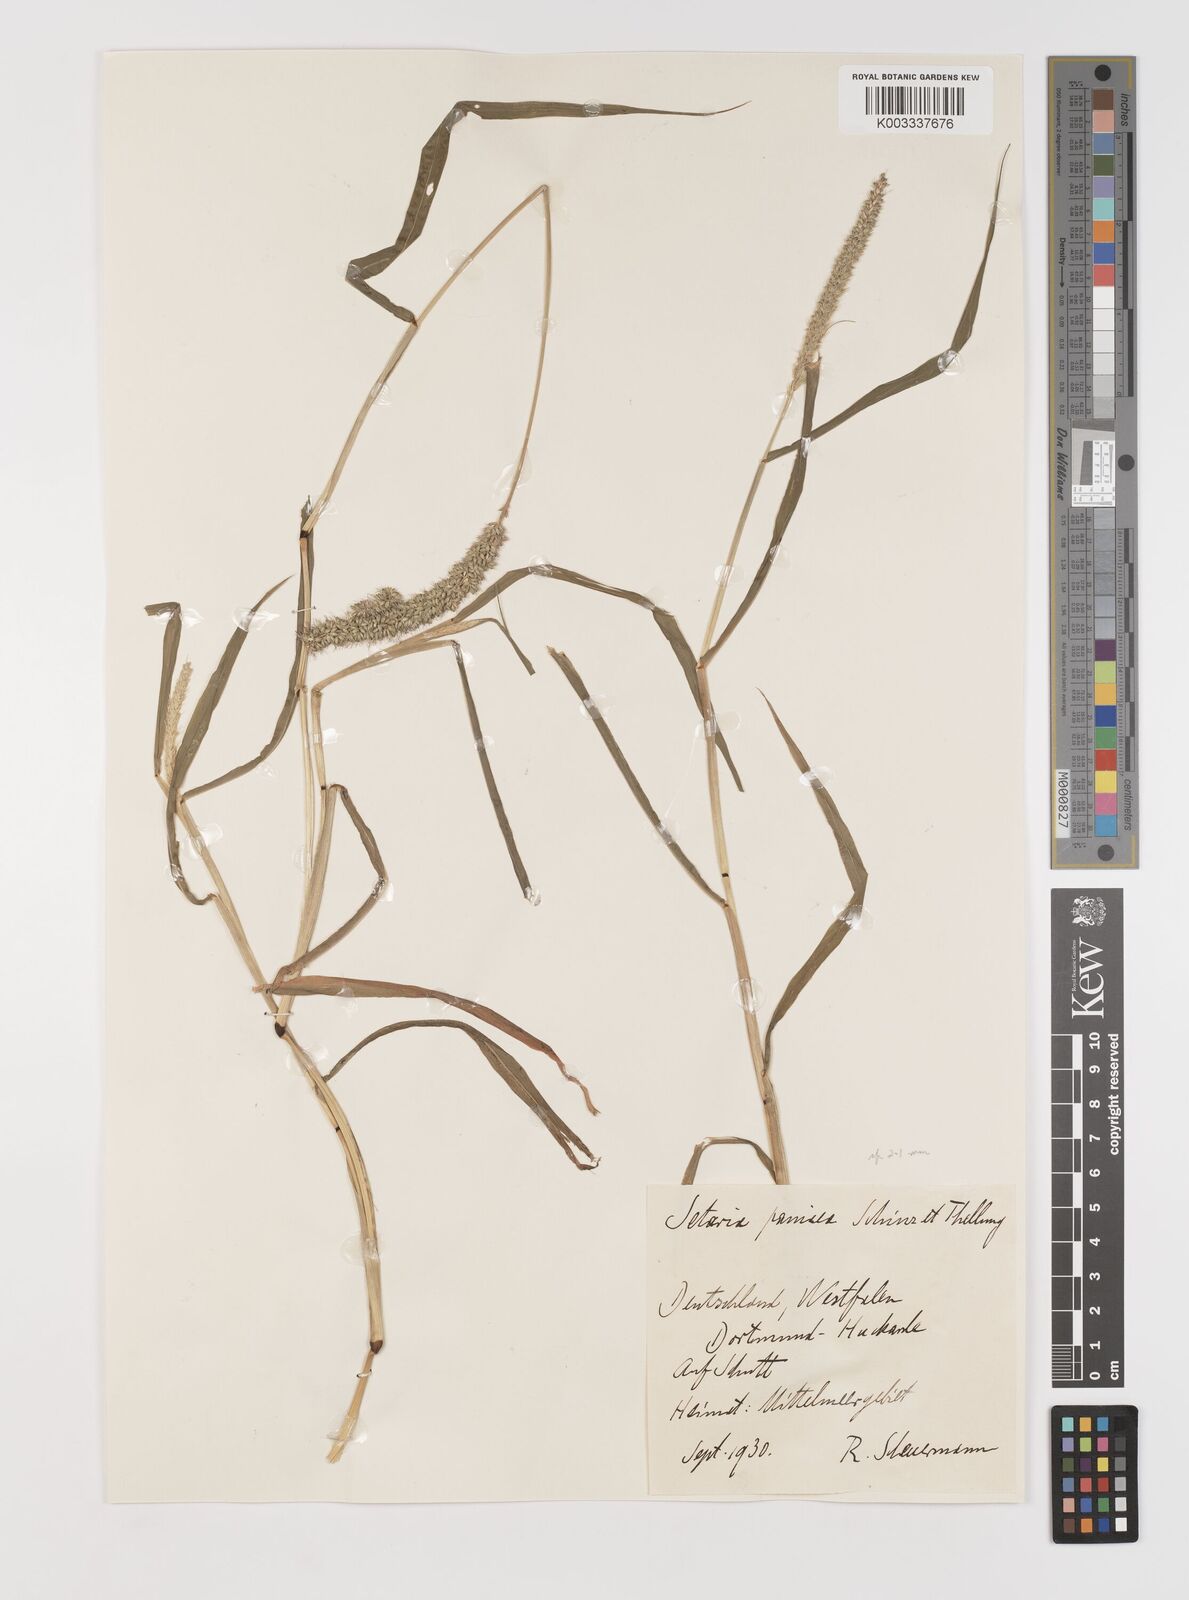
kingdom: Plantae
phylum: Tracheophyta
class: Liliopsida
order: Poales
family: Poaceae
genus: Setaria
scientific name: Setaria verticillata
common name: Hooked bristlegrass
